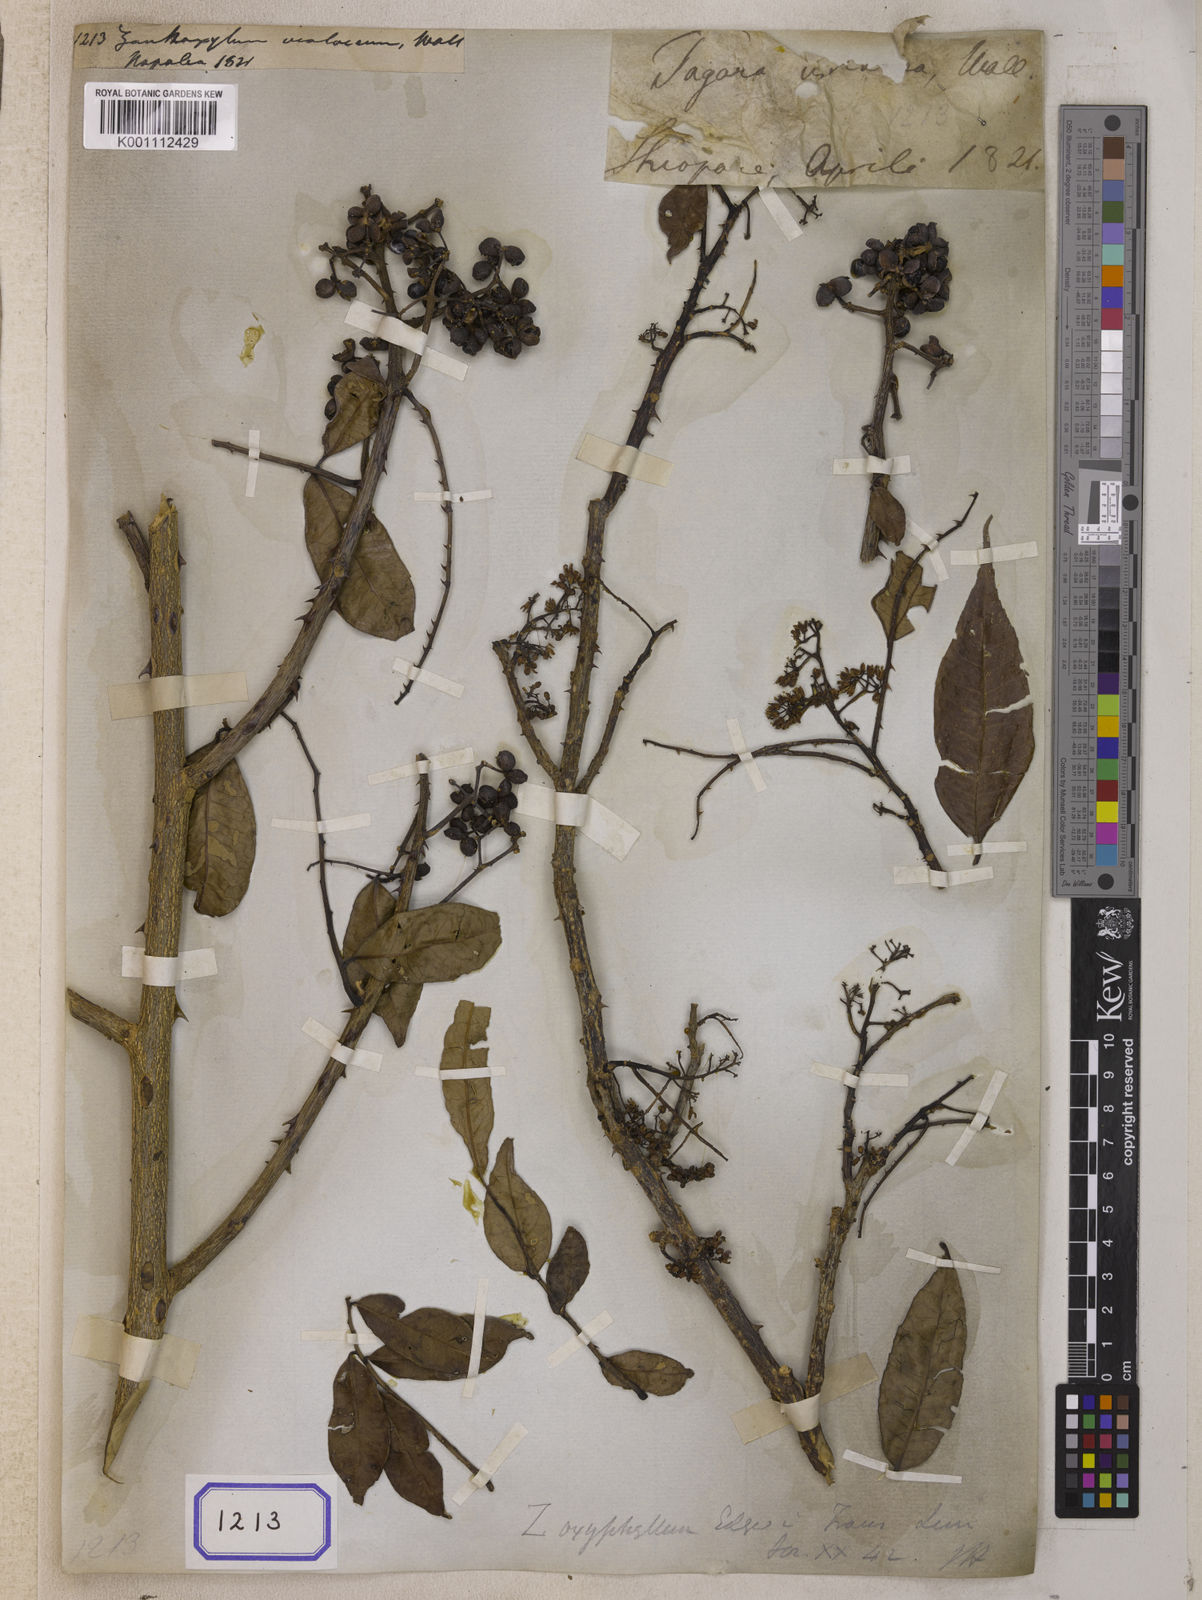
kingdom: Plantae
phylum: Tracheophyta
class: Magnoliopsida
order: Sapindales
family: Rutaceae
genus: Zanthoxylum
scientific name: Zanthoxylum armatum
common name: Winged prickly-ash
